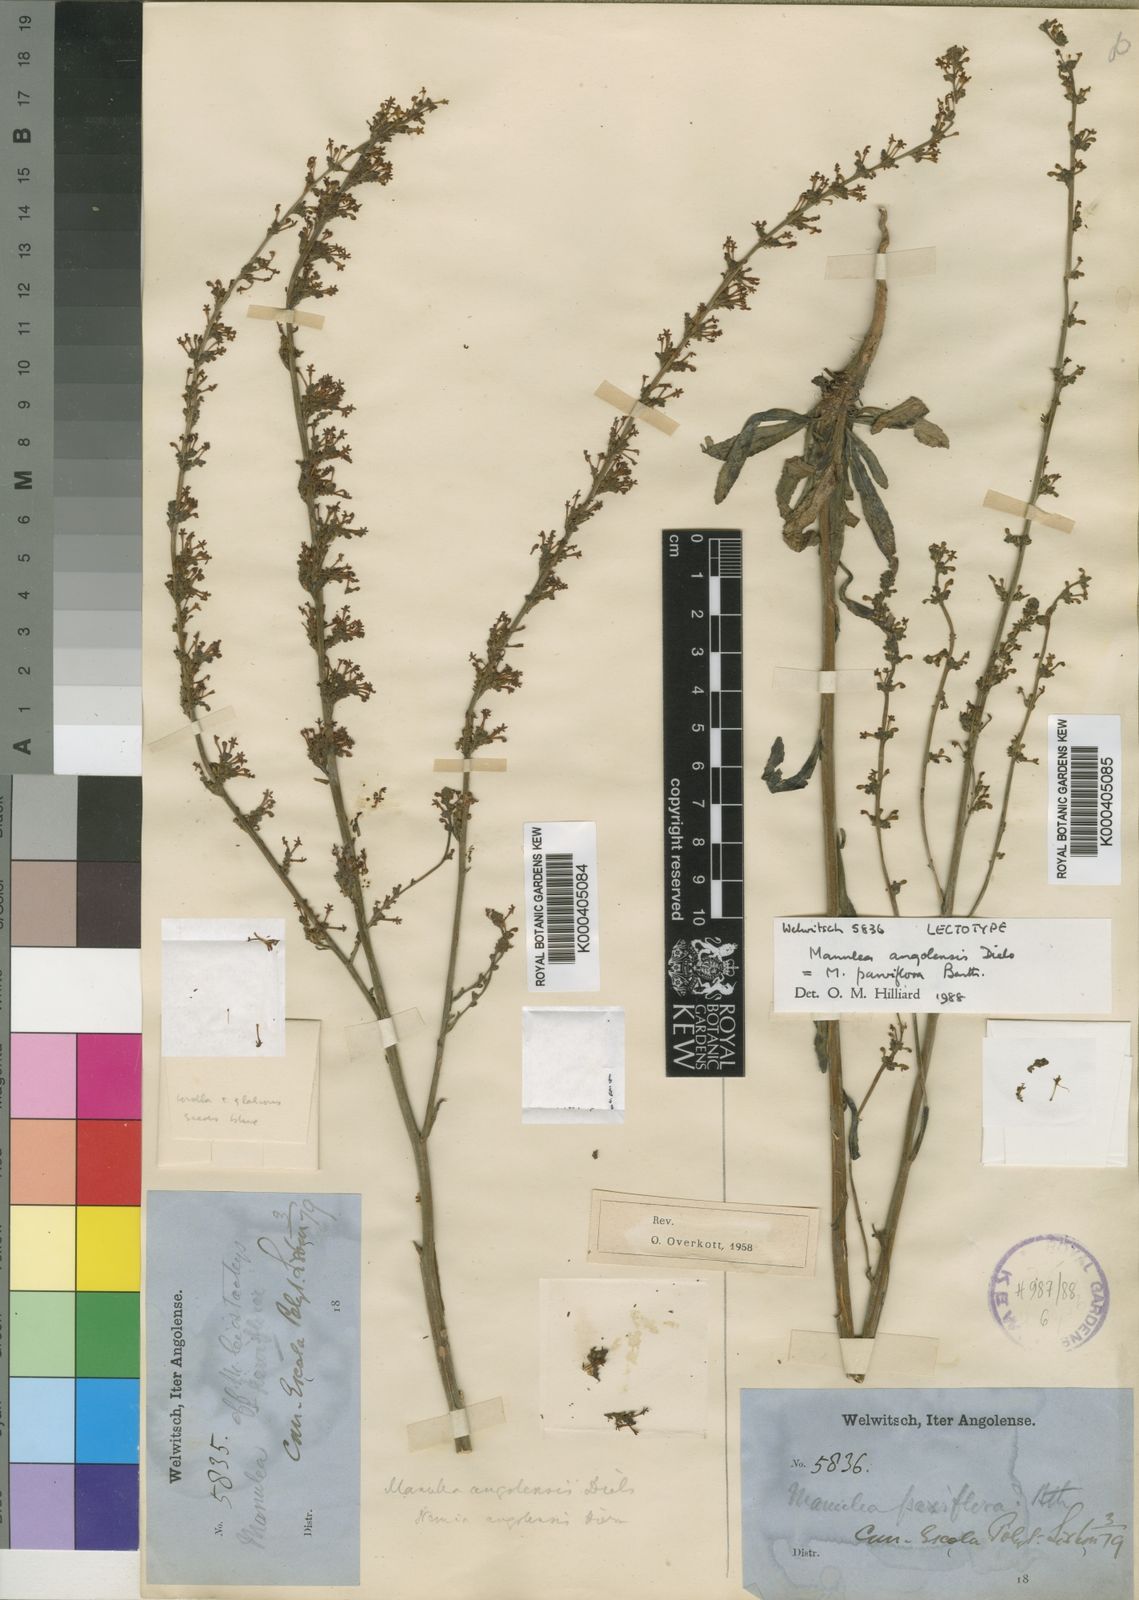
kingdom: Plantae
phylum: Tracheophyta
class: Magnoliopsida
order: Lamiales
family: Scrophulariaceae
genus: Manulea
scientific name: Manulea parviflora
